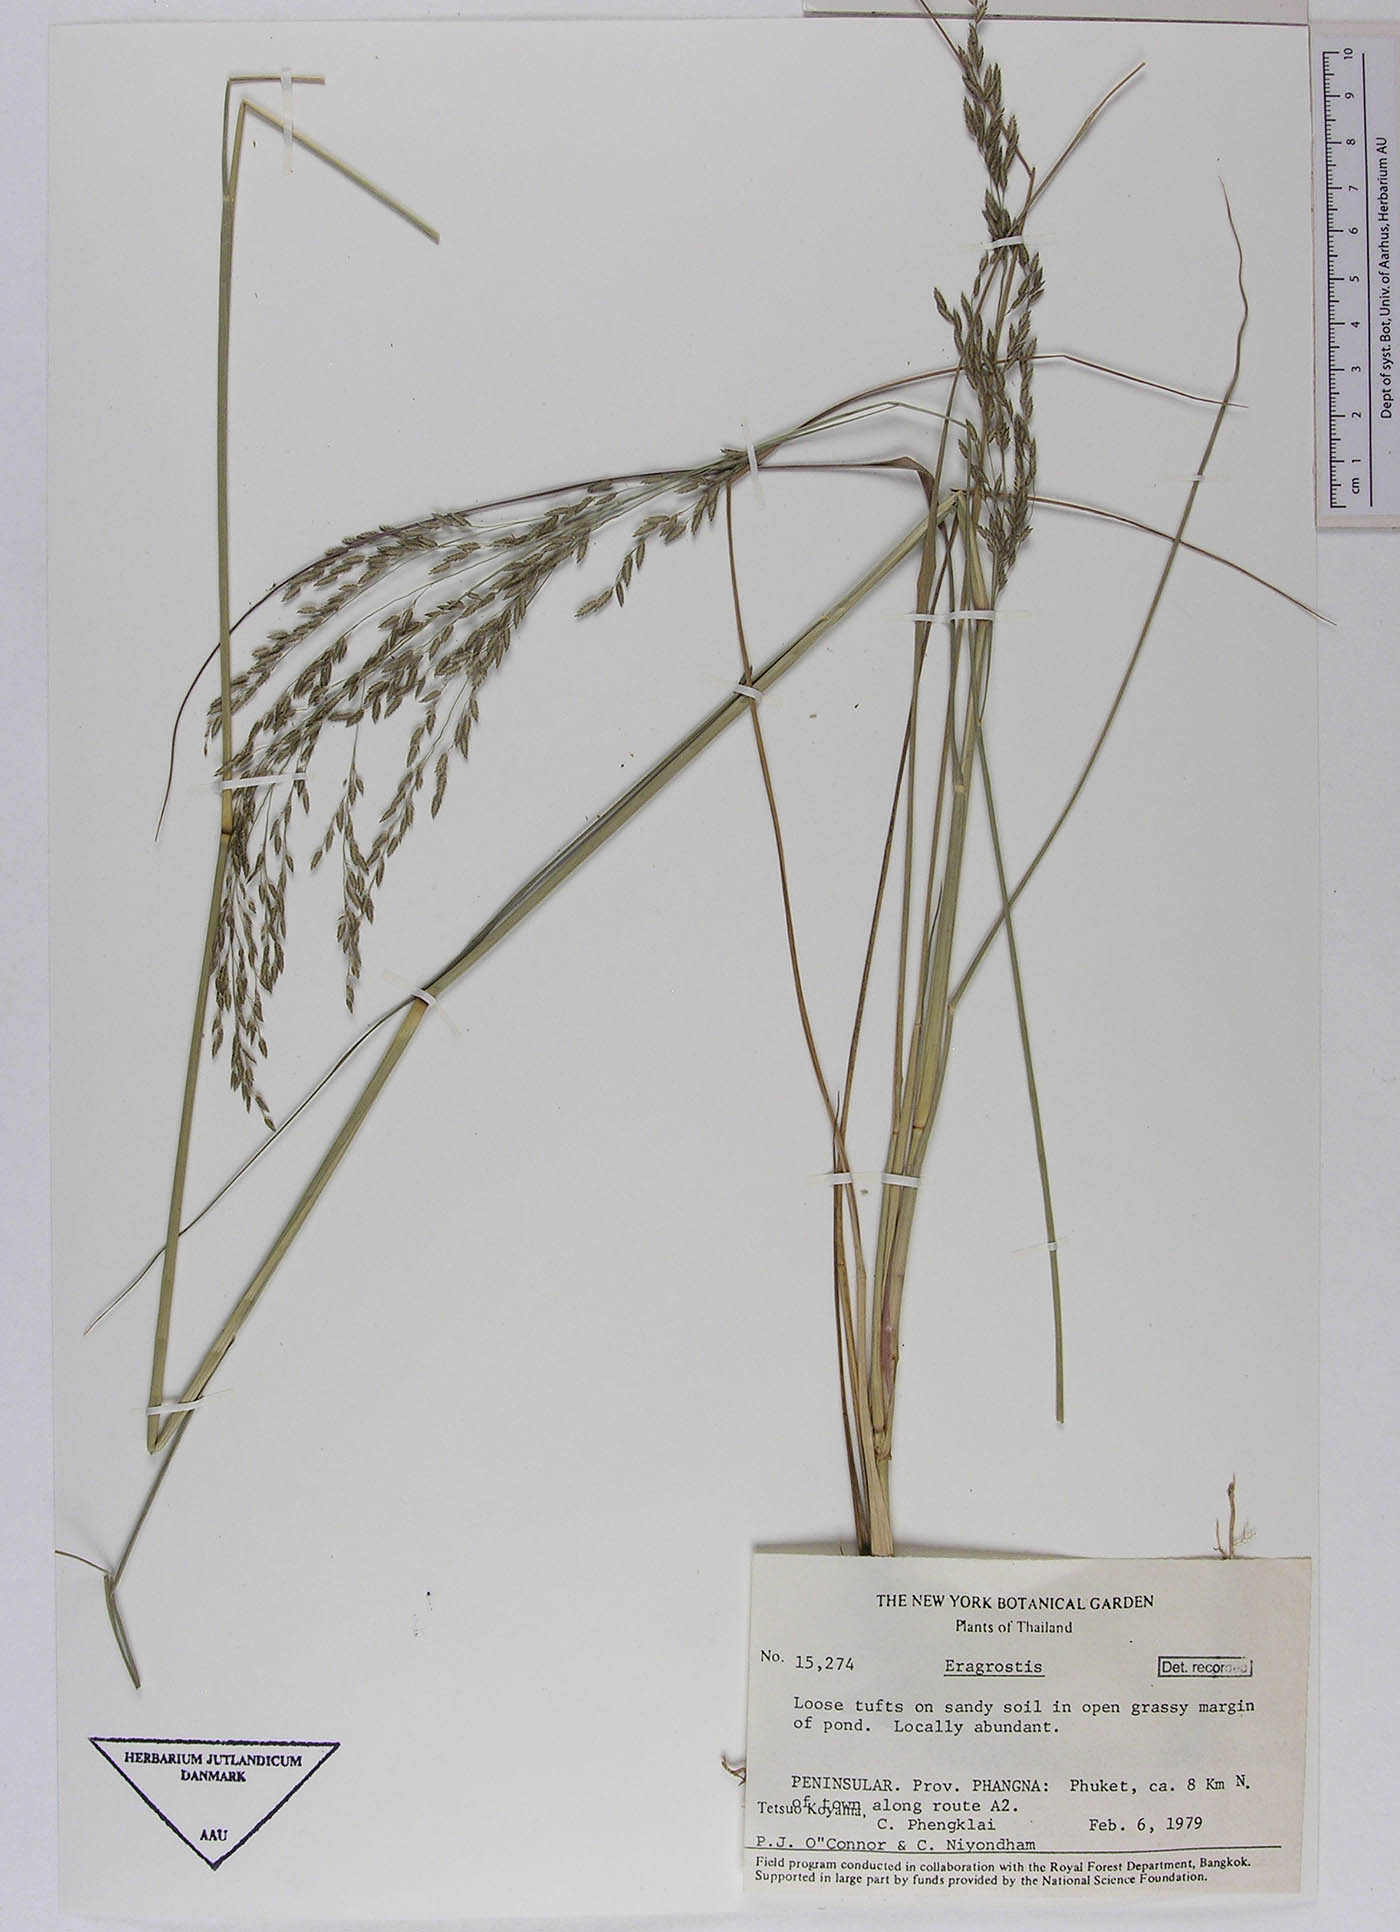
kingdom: Plantae
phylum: Tracheophyta
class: Liliopsida
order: Poales
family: Poaceae
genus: Eragrostis
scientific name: Eragrostis atrovirens
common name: Thalia lovegrass
